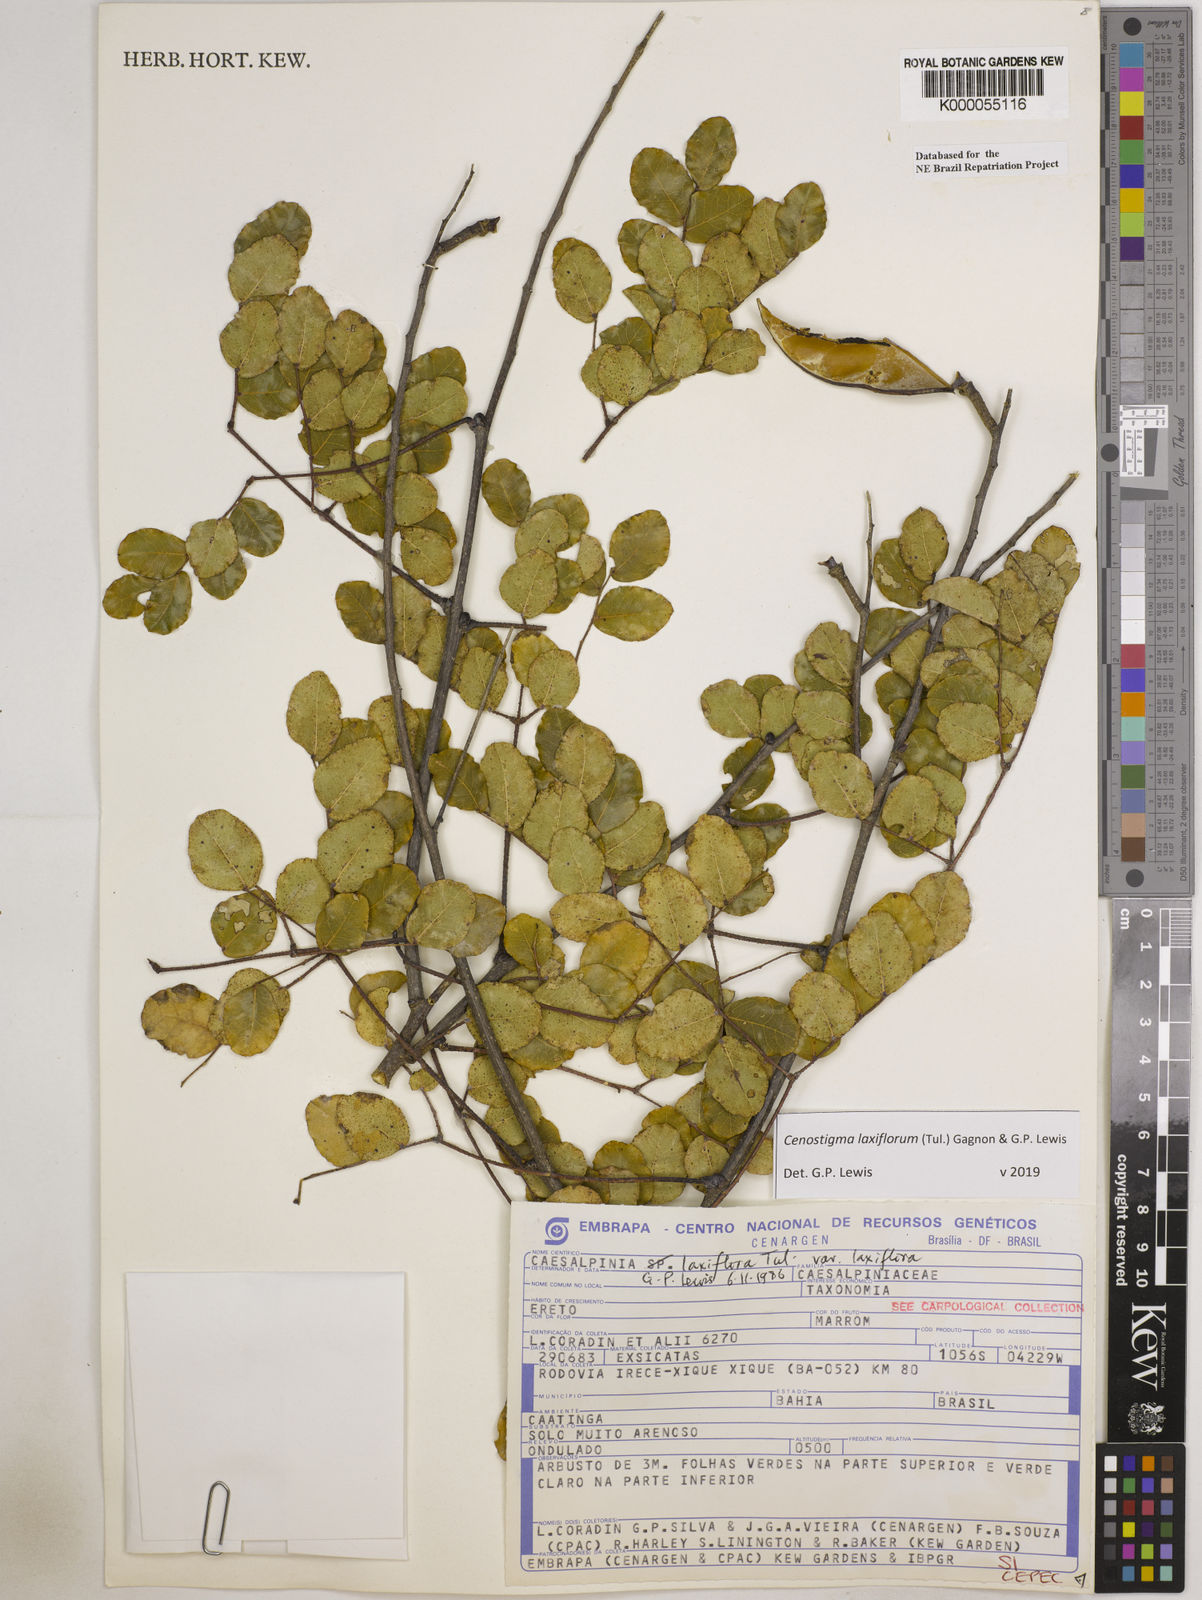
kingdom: Plantae
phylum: Tracheophyta
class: Magnoliopsida
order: Fabales
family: Fabaceae
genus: Cenostigma
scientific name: Cenostigma laxiflorum
